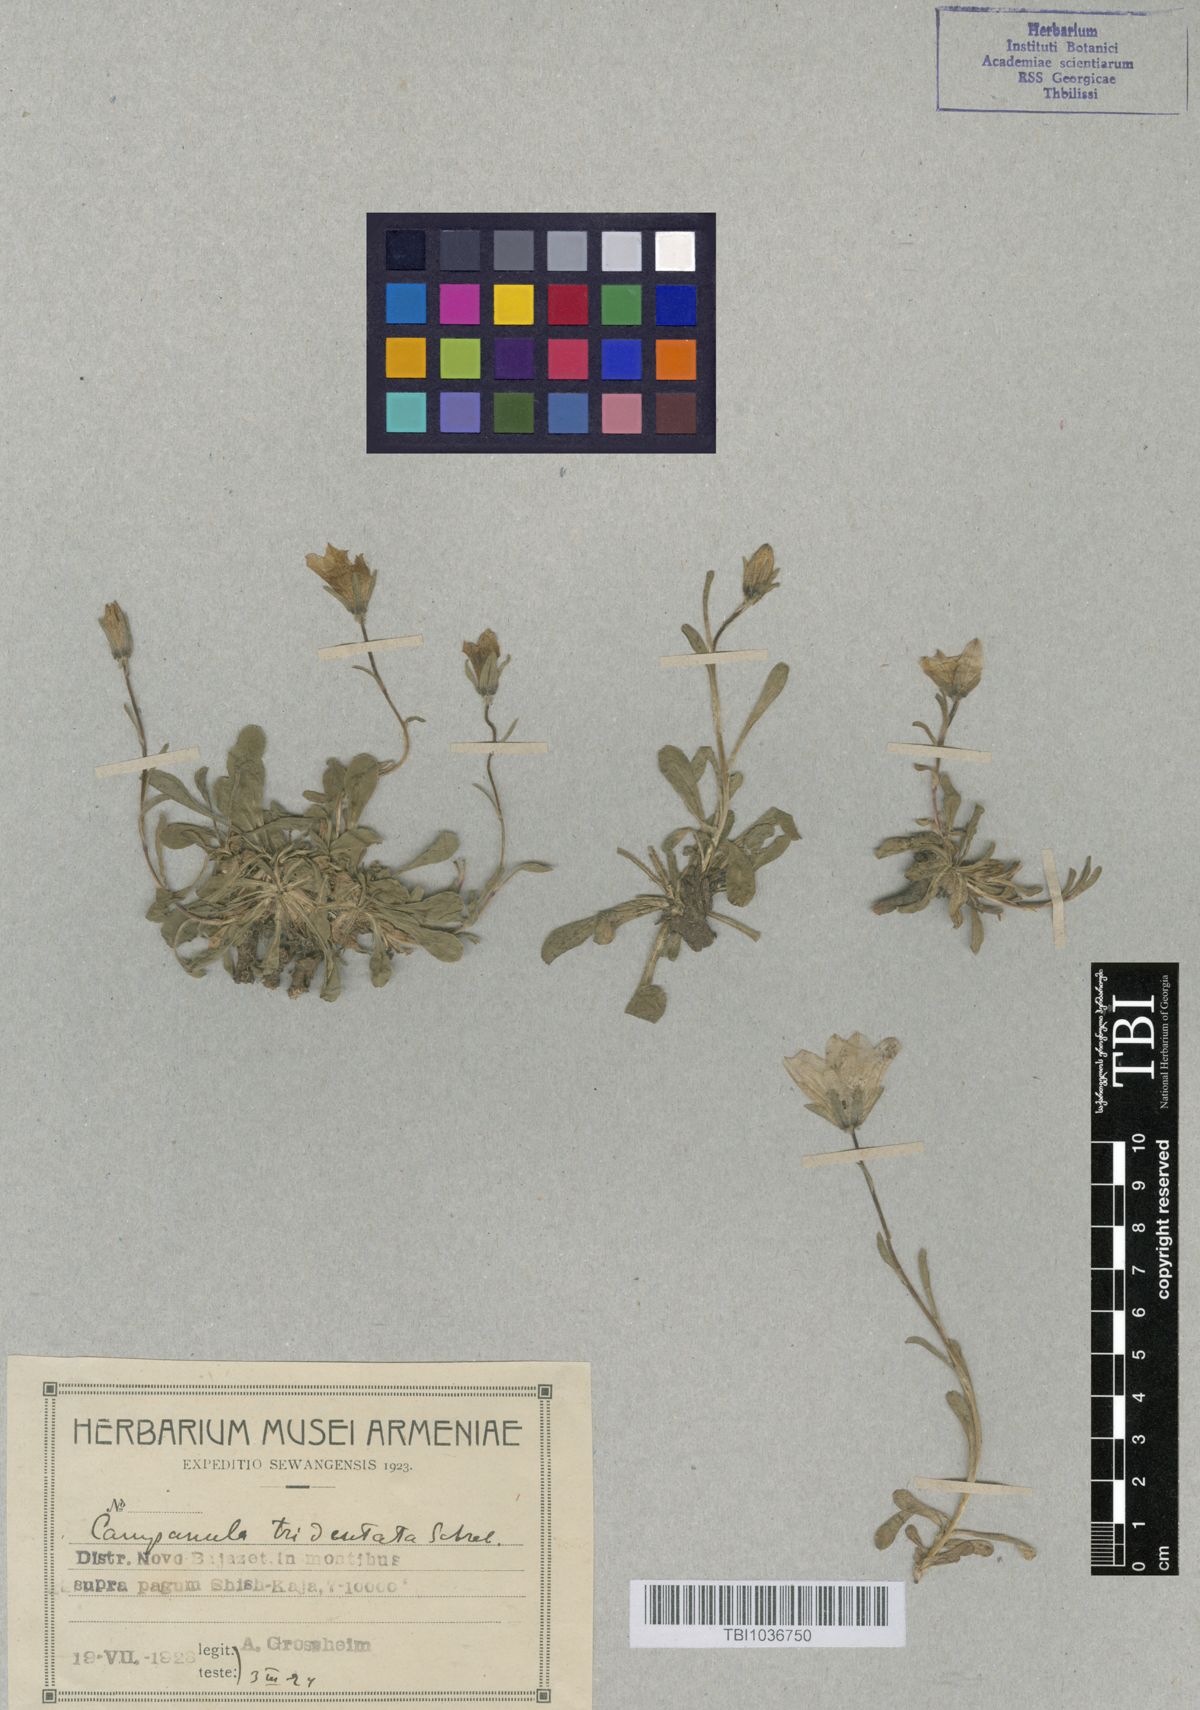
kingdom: Plantae
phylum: Tracheophyta
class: Magnoliopsida
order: Asterales
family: Campanulaceae
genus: Campanula
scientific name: Campanula tridentata
